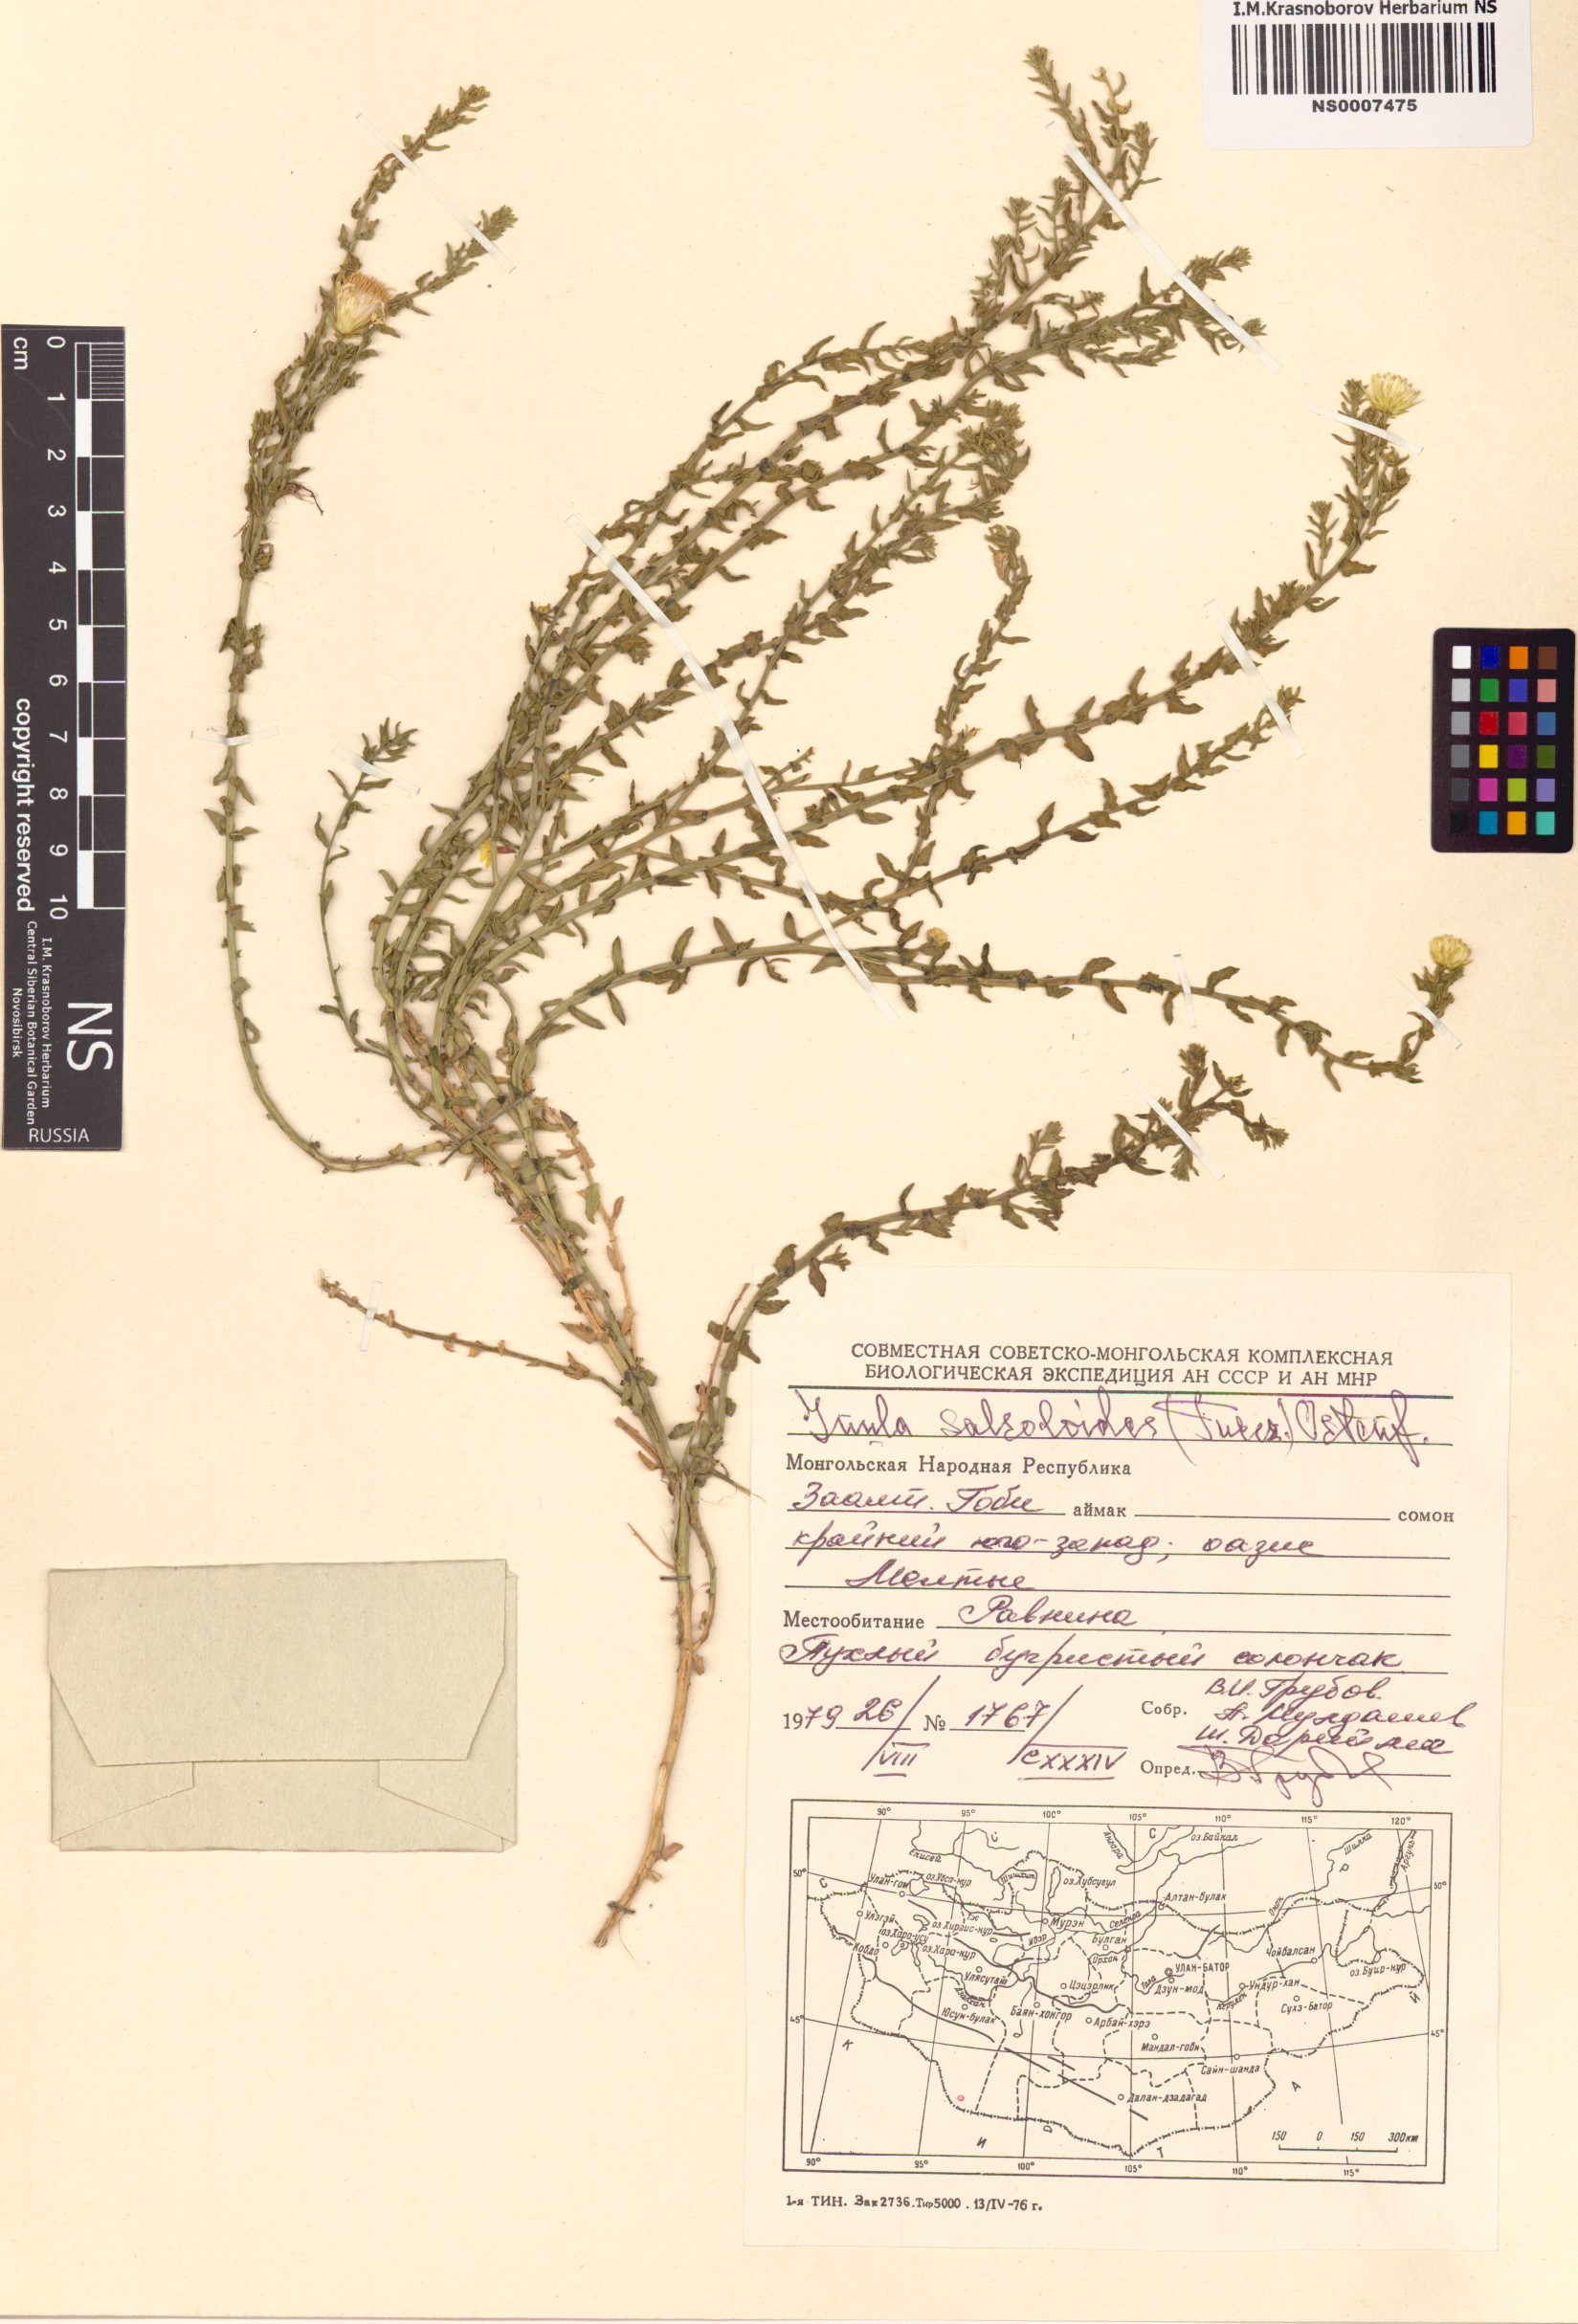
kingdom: Plantae
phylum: Tracheophyta
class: Magnoliopsida
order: Asterales
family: Asteraceae
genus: Inula
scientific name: Inula salsoloides
